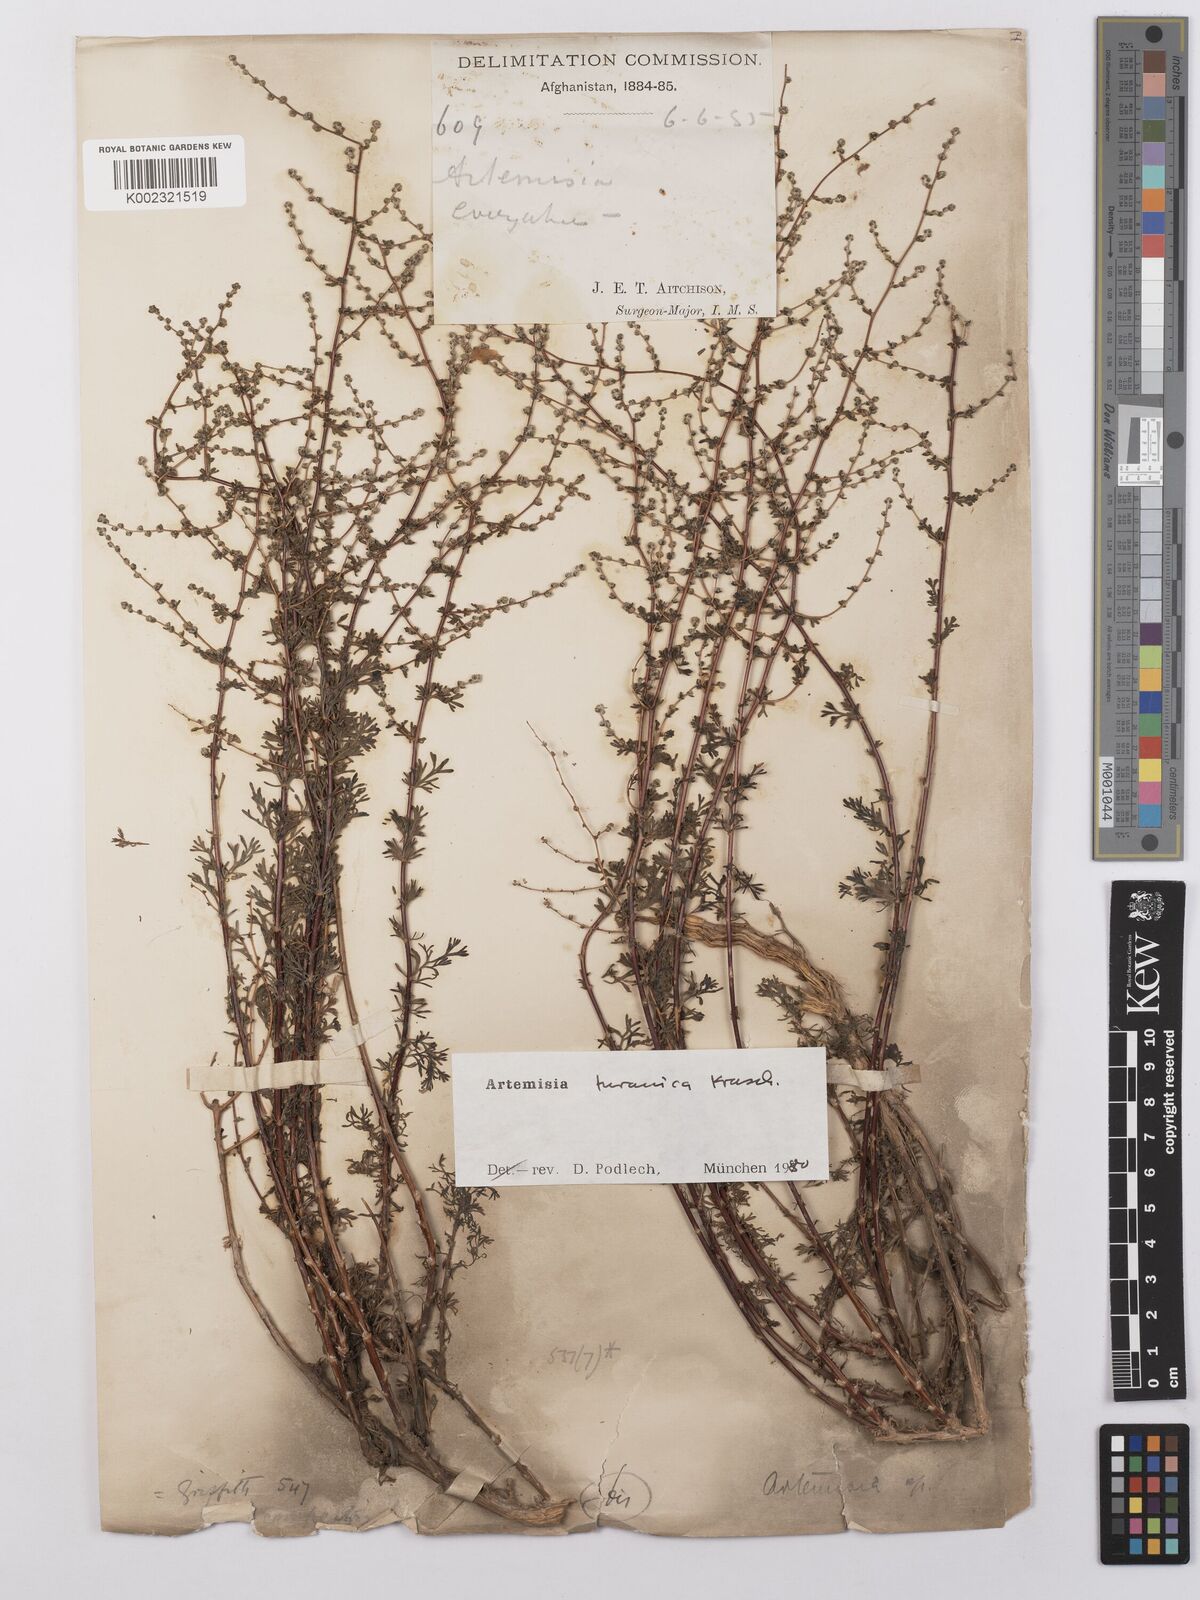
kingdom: Plantae
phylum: Tracheophyta
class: Magnoliopsida
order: Asterales
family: Asteraceae
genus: Artemisia
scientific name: Artemisia turanica
